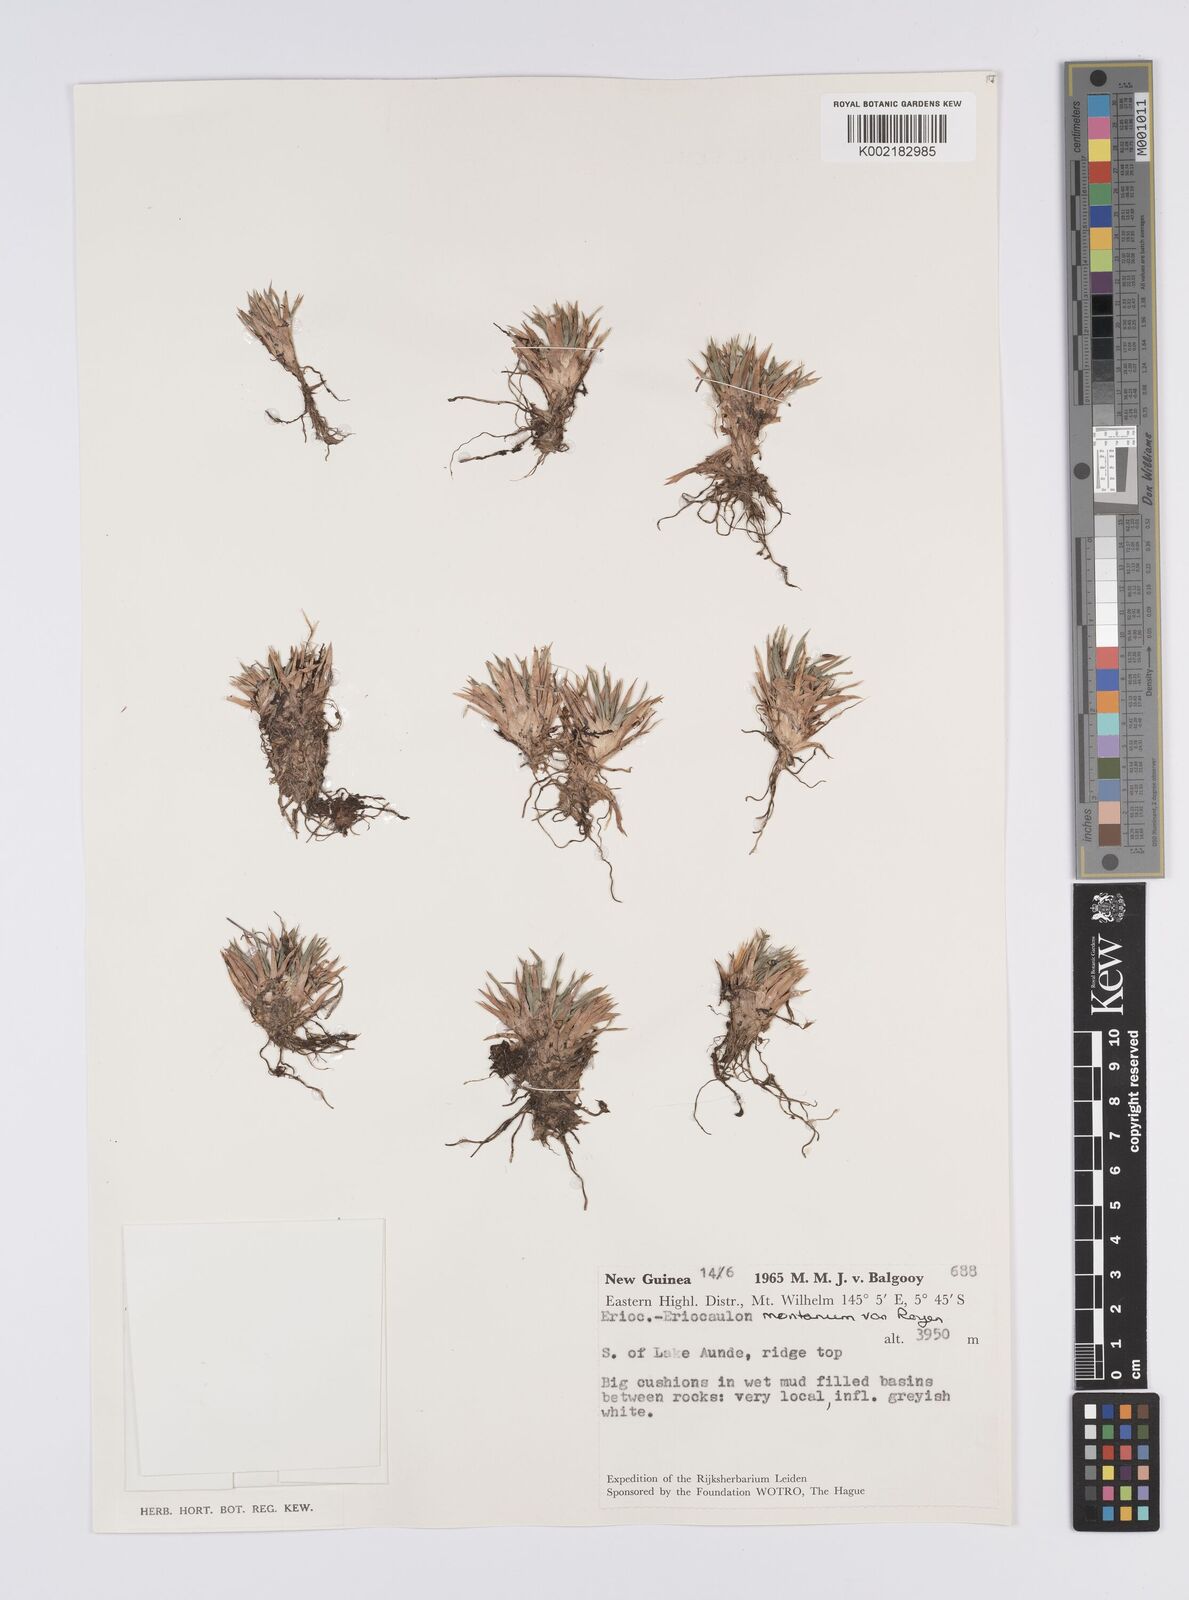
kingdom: Plantae
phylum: Tracheophyta
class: Liliopsida
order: Poales
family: Eriocaulaceae
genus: Eriocaulon
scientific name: Eriocaulon montanum
